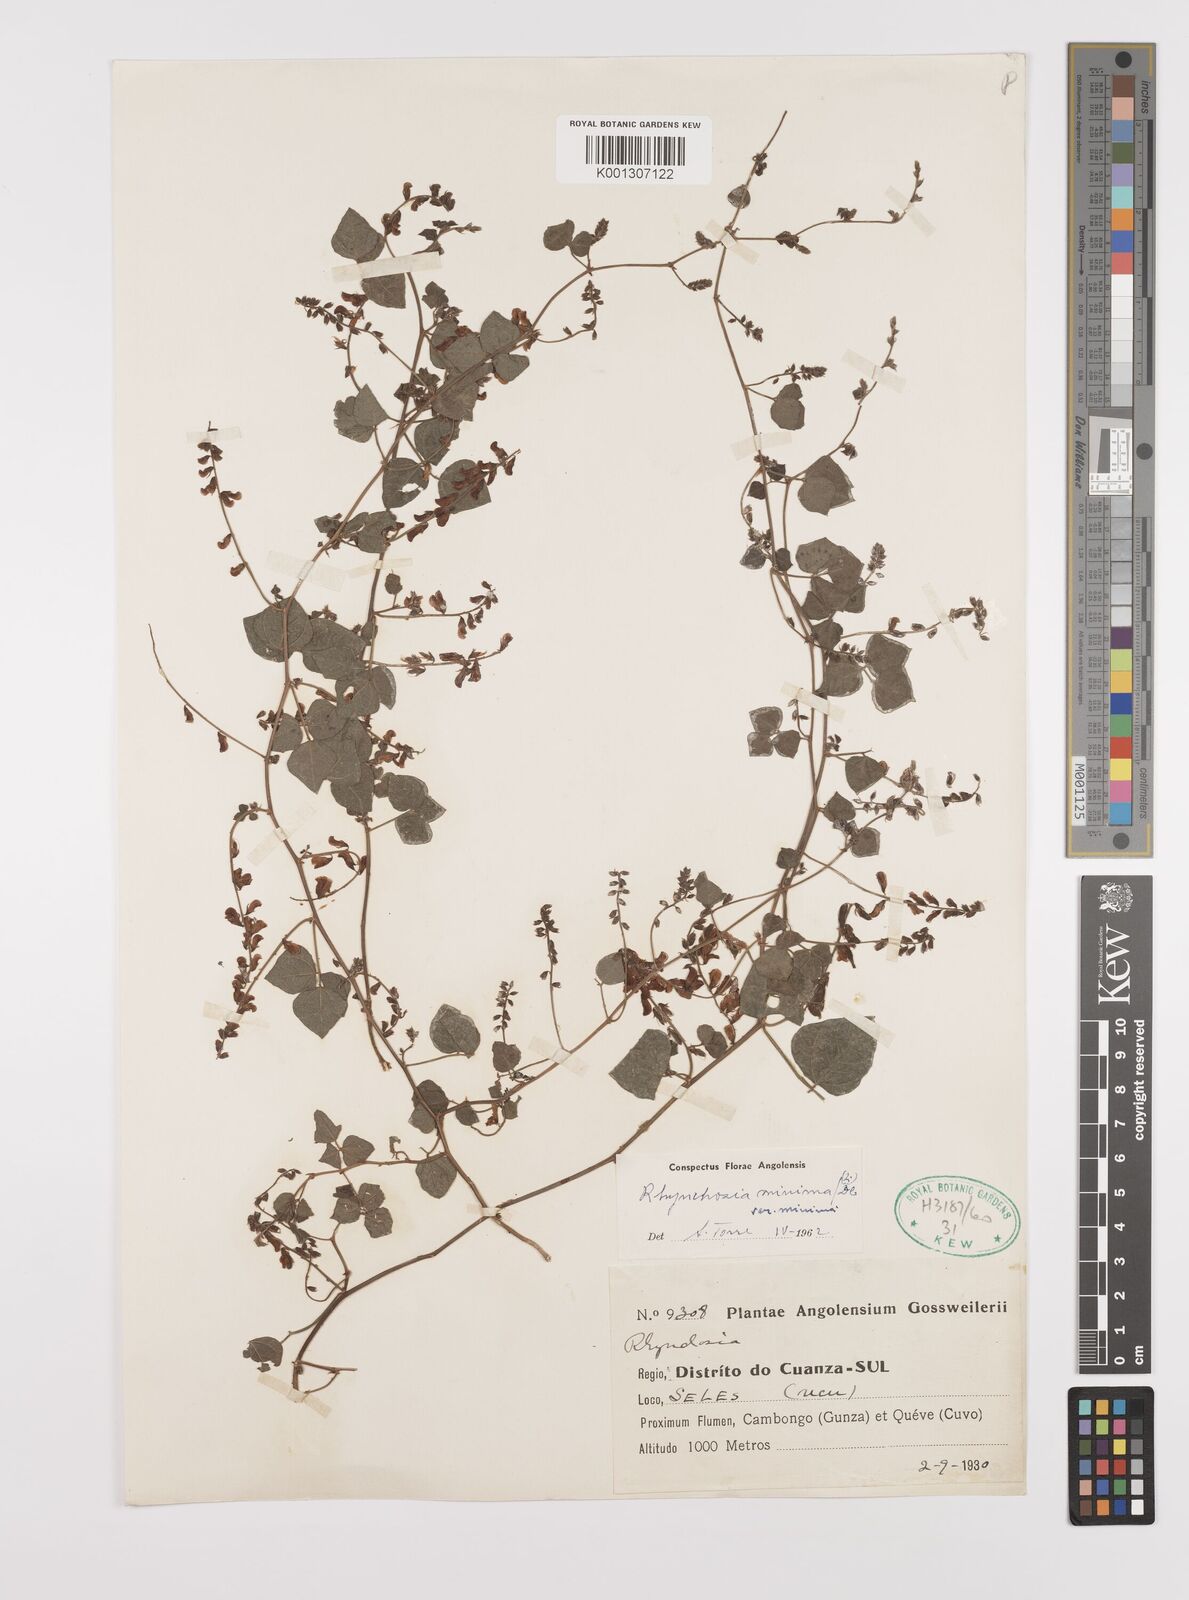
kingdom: Plantae
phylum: Tracheophyta
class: Magnoliopsida
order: Fabales
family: Fabaceae
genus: Rhynchosia
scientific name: Rhynchosia minima
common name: Least snoutbean
